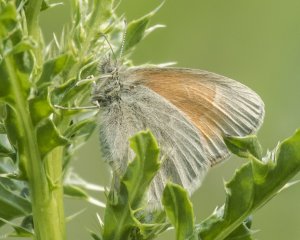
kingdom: Animalia
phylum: Arthropoda
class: Insecta
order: Lepidoptera
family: Nymphalidae
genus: Coenonympha
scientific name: Coenonympha tullia
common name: Large Heath
